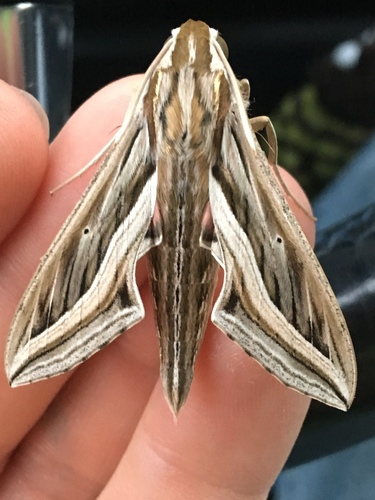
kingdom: Animalia
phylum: Arthropoda
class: Insecta
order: Lepidoptera
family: Sphingidae
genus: Hippotion
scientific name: Hippotion celerio
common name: Silver-striped hawk-moth
